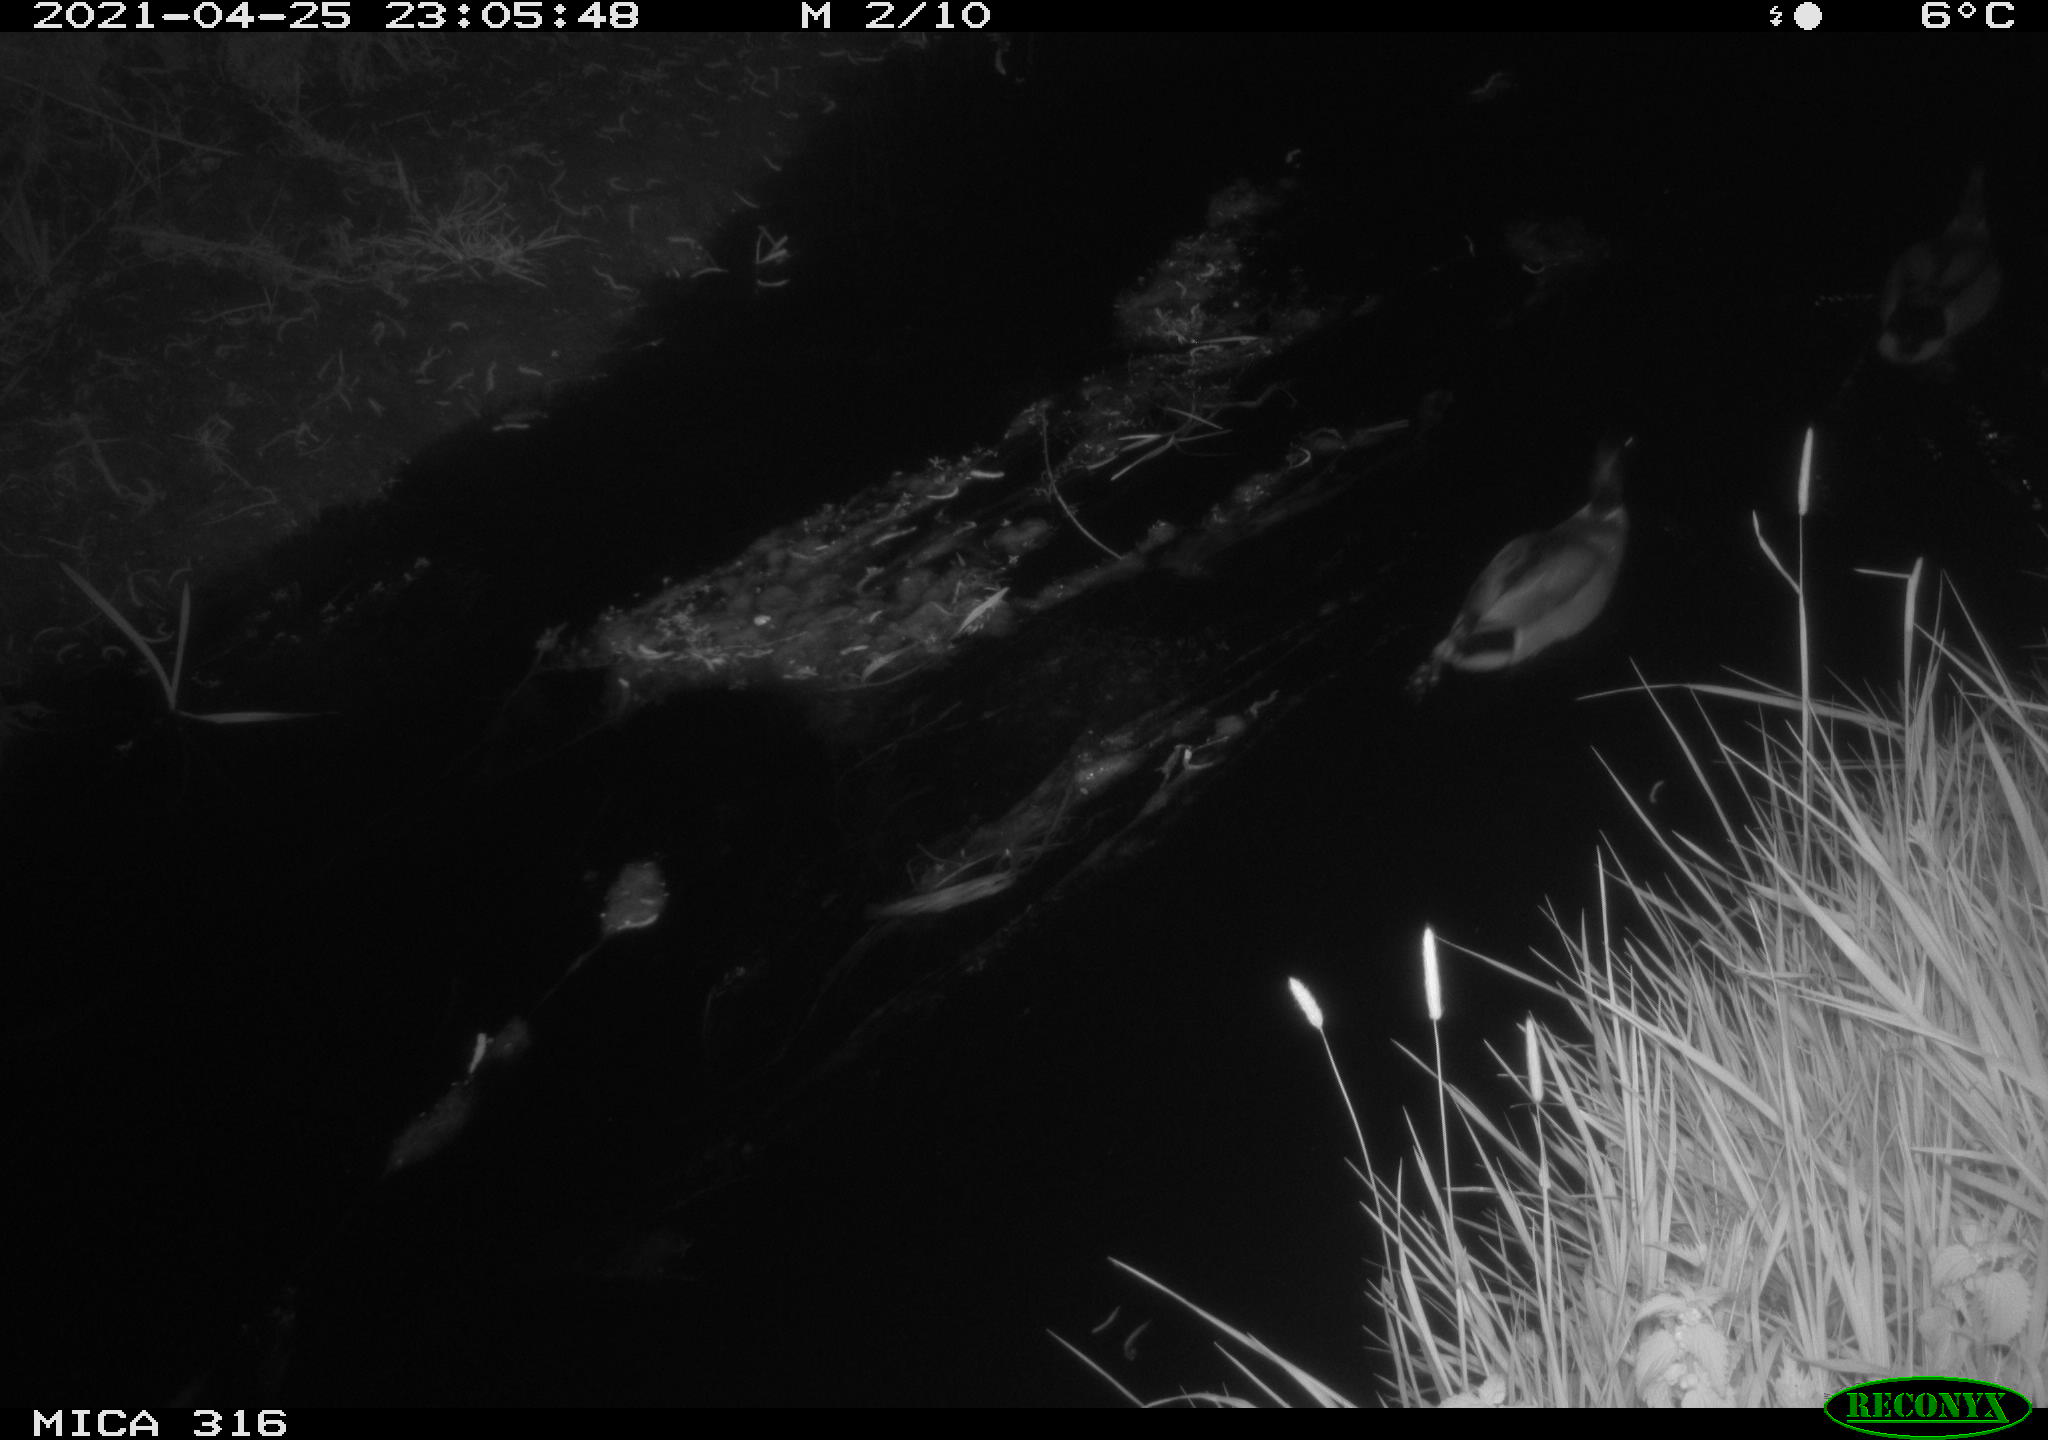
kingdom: Animalia
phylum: Chordata
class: Aves
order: Anseriformes
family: Anatidae
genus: Anas
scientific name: Anas platyrhynchos
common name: Mallard
